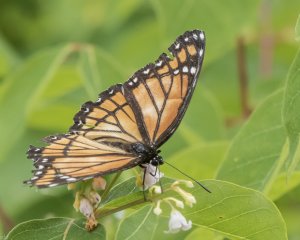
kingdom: Animalia
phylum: Arthropoda
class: Insecta
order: Lepidoptera
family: Nymphalidae
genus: Limenitis
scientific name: Limenitis archippus
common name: Viceroy
